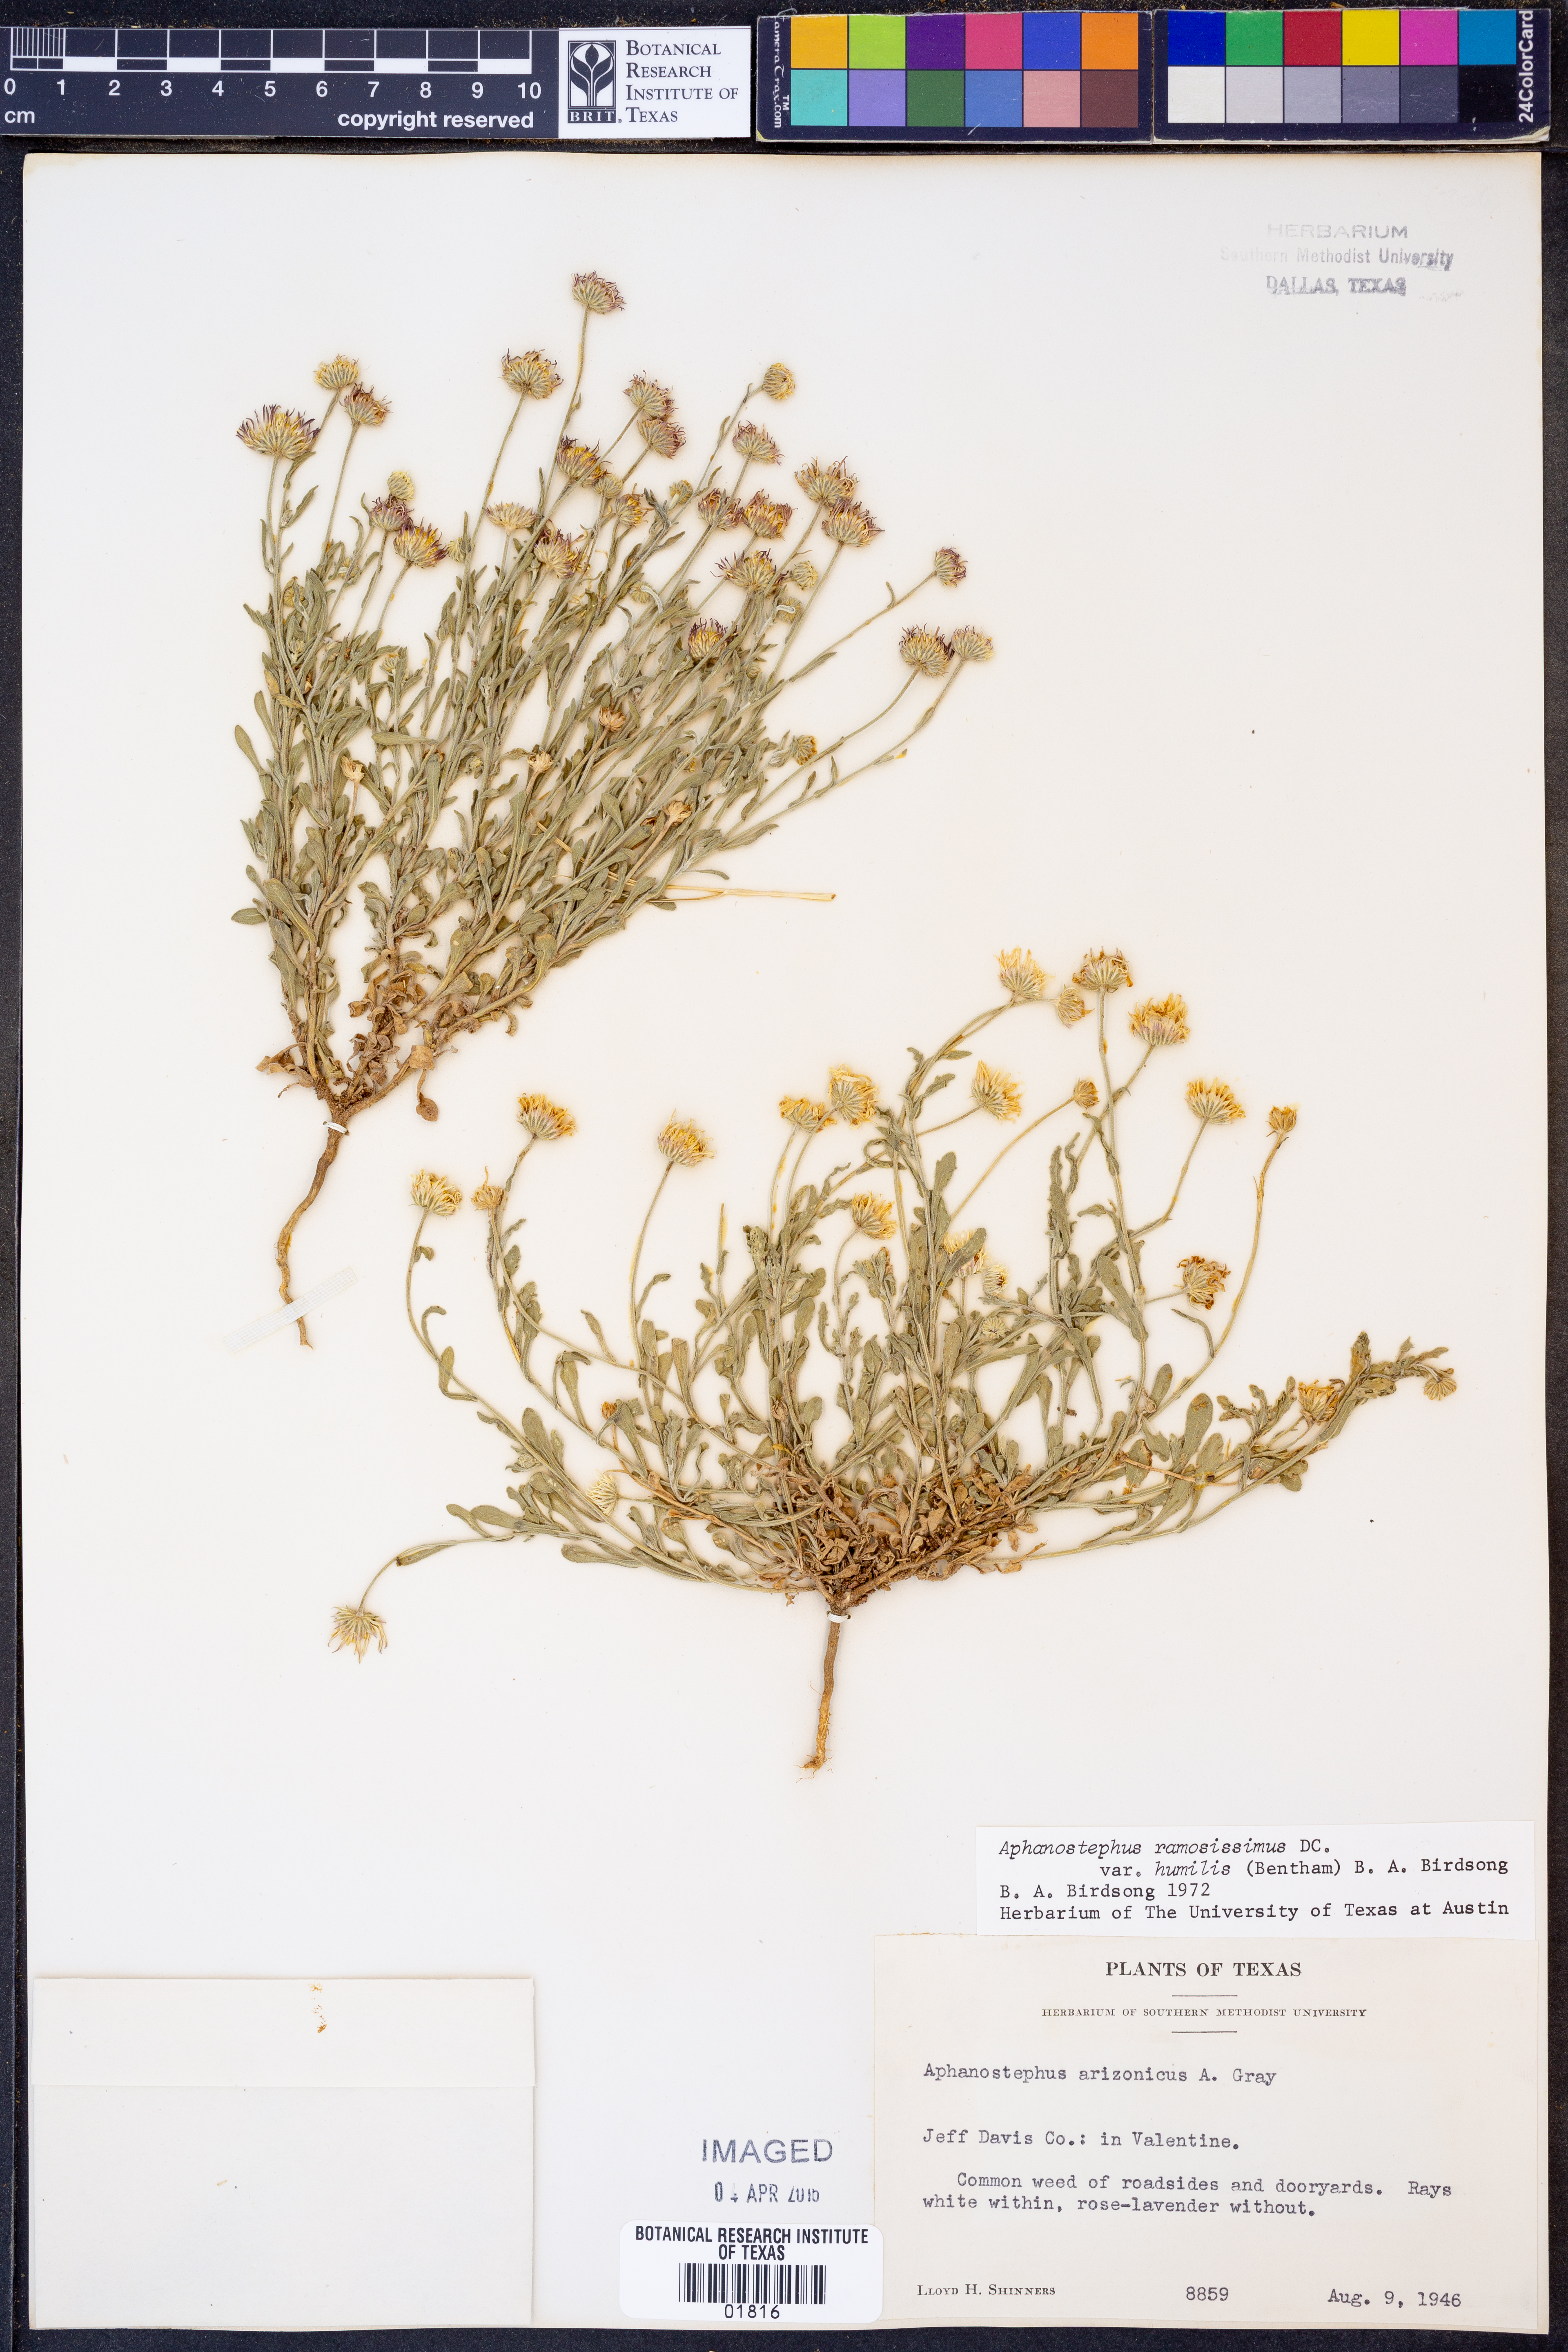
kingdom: Plantae
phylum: Tracheophyta
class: Magnoliopsida
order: Asterales
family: Asteraceae
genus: Aphanostephus
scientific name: Aphanostephus ramosissimus
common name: Plains lazy daisy
